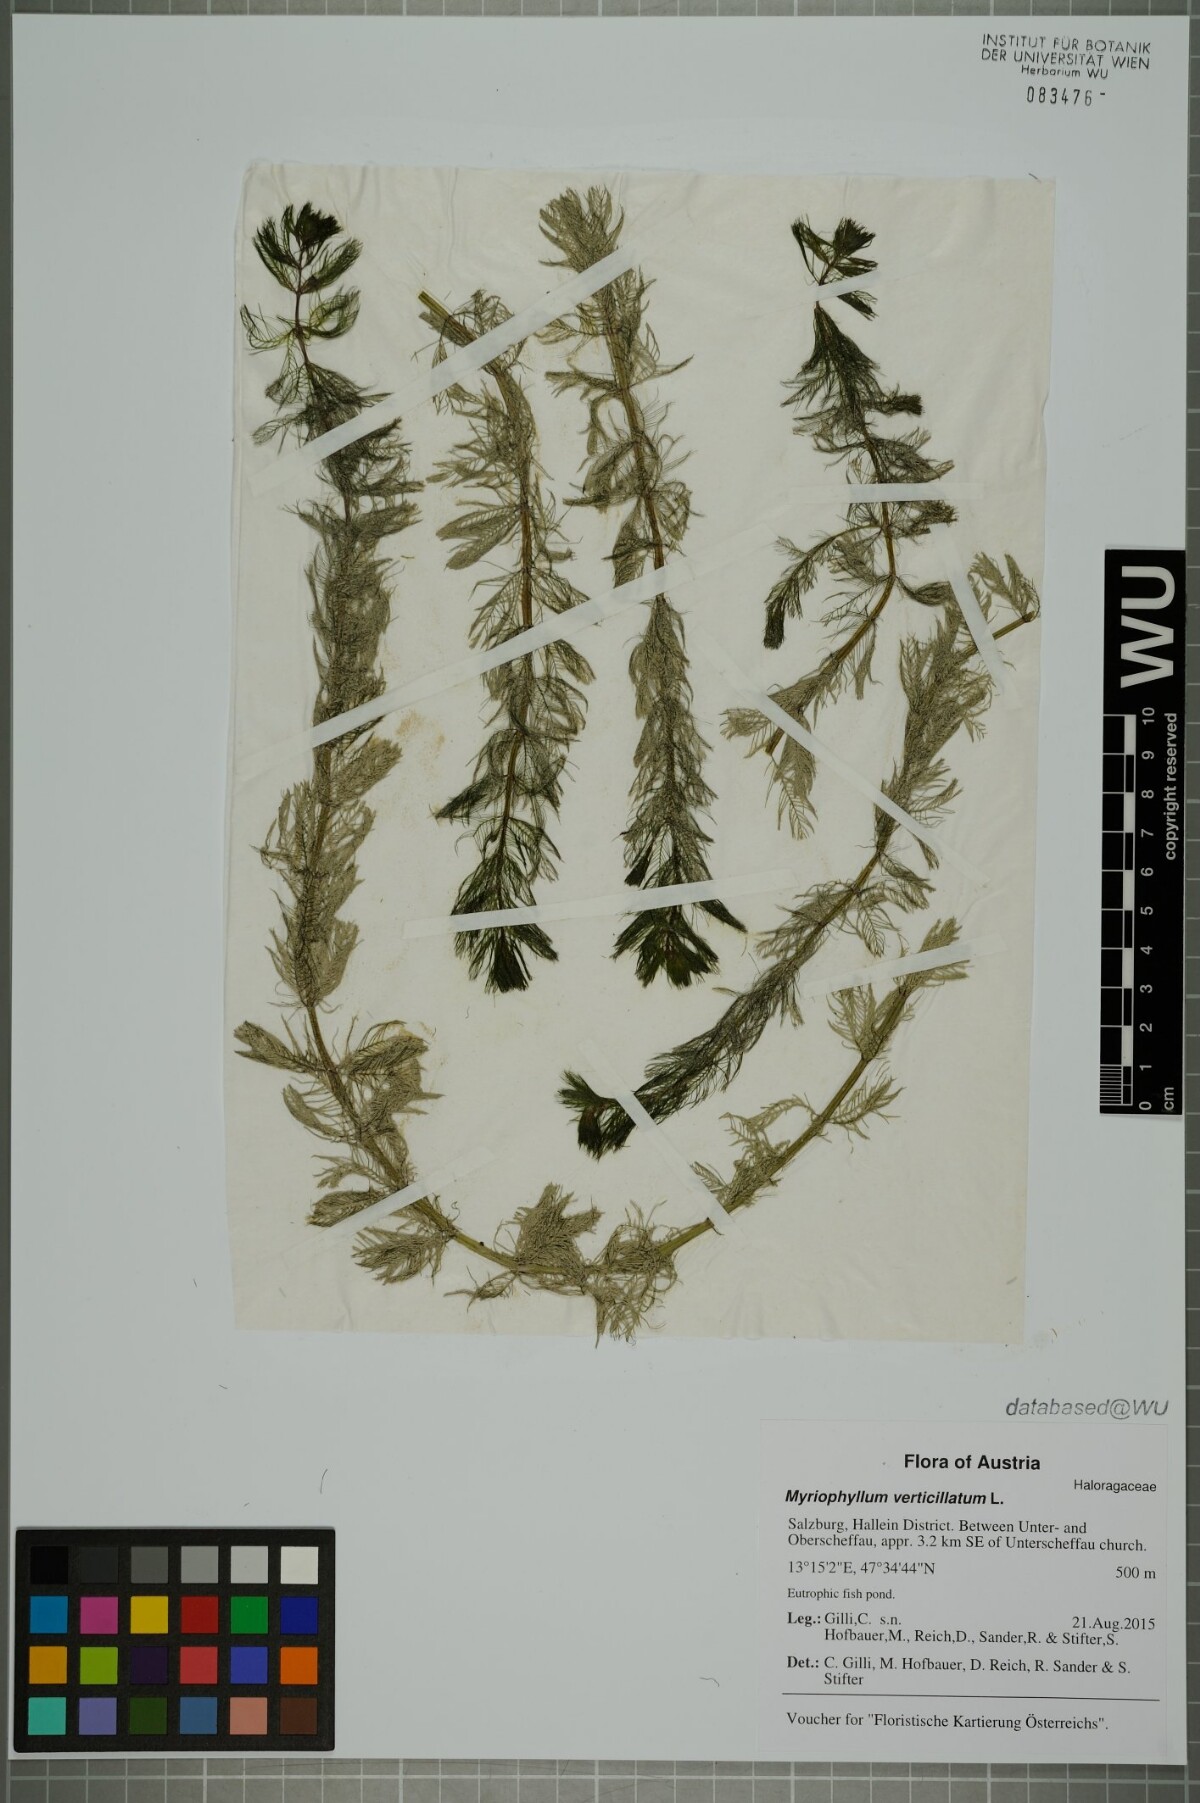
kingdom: Plantae
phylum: Tracheophyta
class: Magnoliopsida
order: Saxifragales
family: Haloragaceae
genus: Myriophyllum
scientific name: Myriophyllum verticillatum
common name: Whorled water-milfoil
